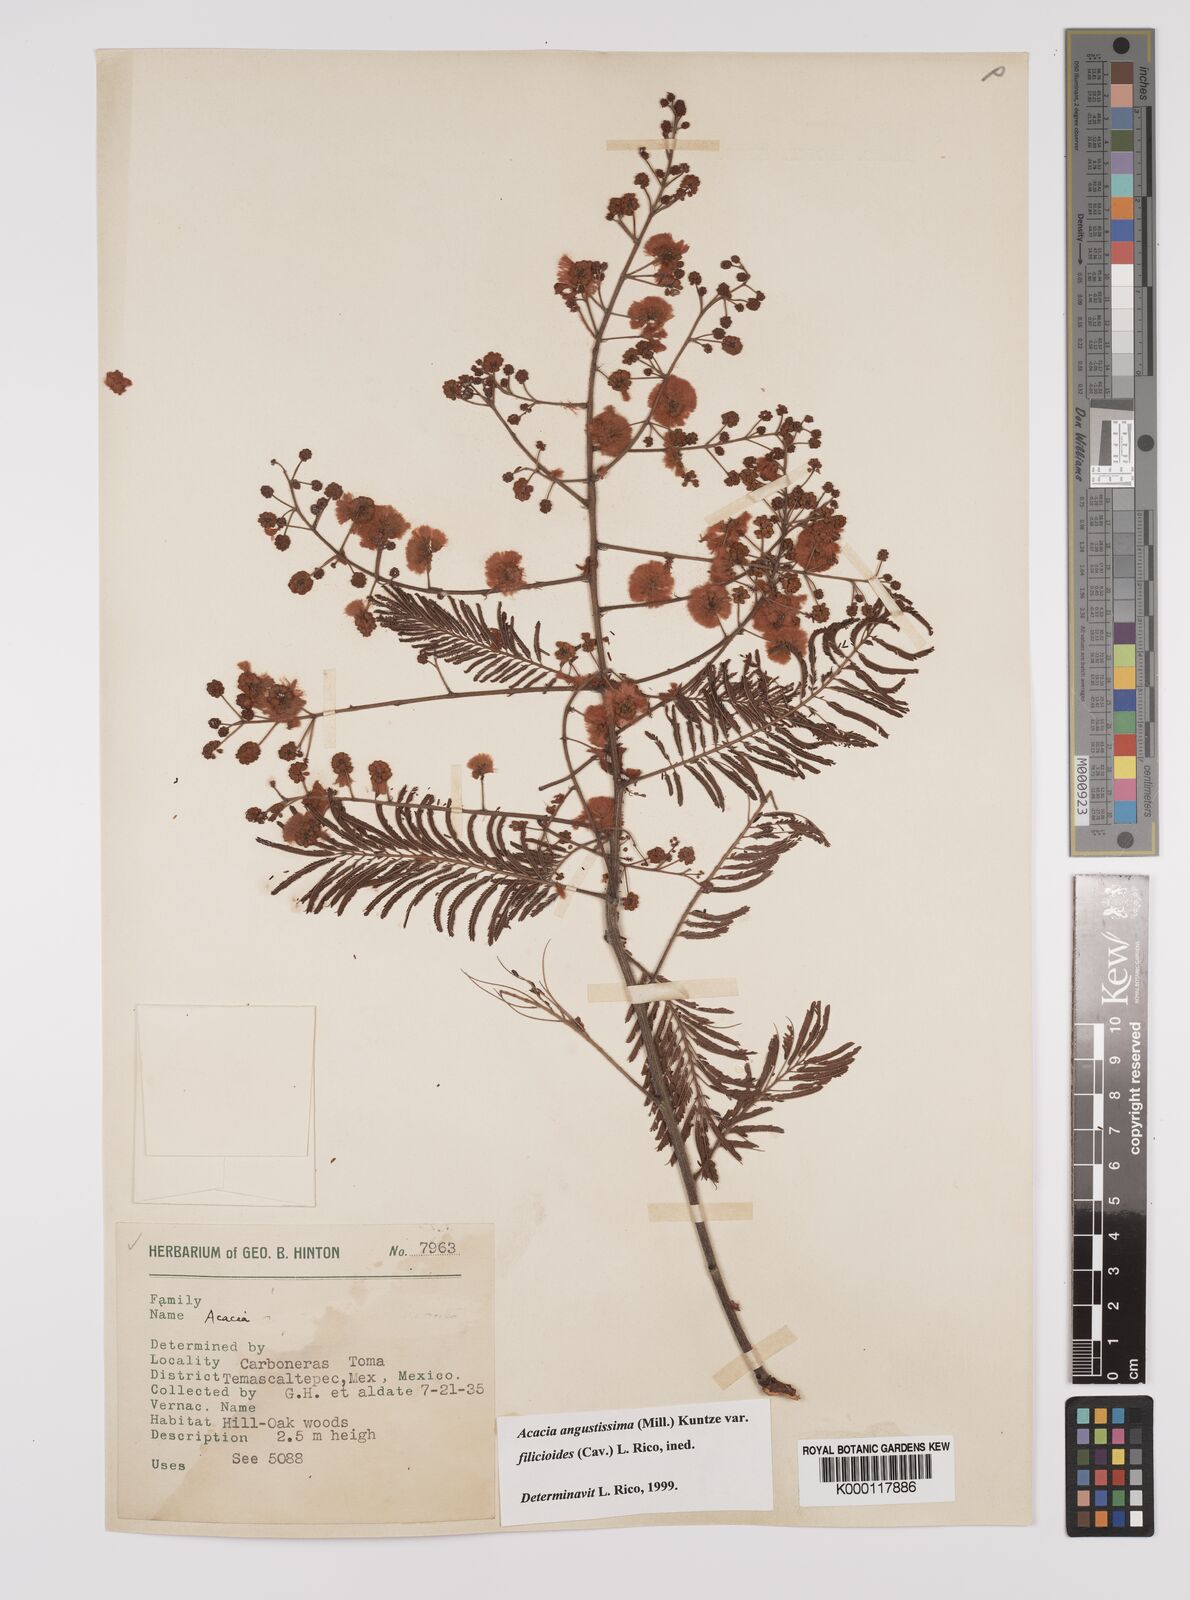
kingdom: Plantae
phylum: Tracheophyta
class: Magnoliopsida
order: Fabales
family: Fabaceae
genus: Acaciella
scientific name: Acaciella angustissima
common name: Prairie acacia
